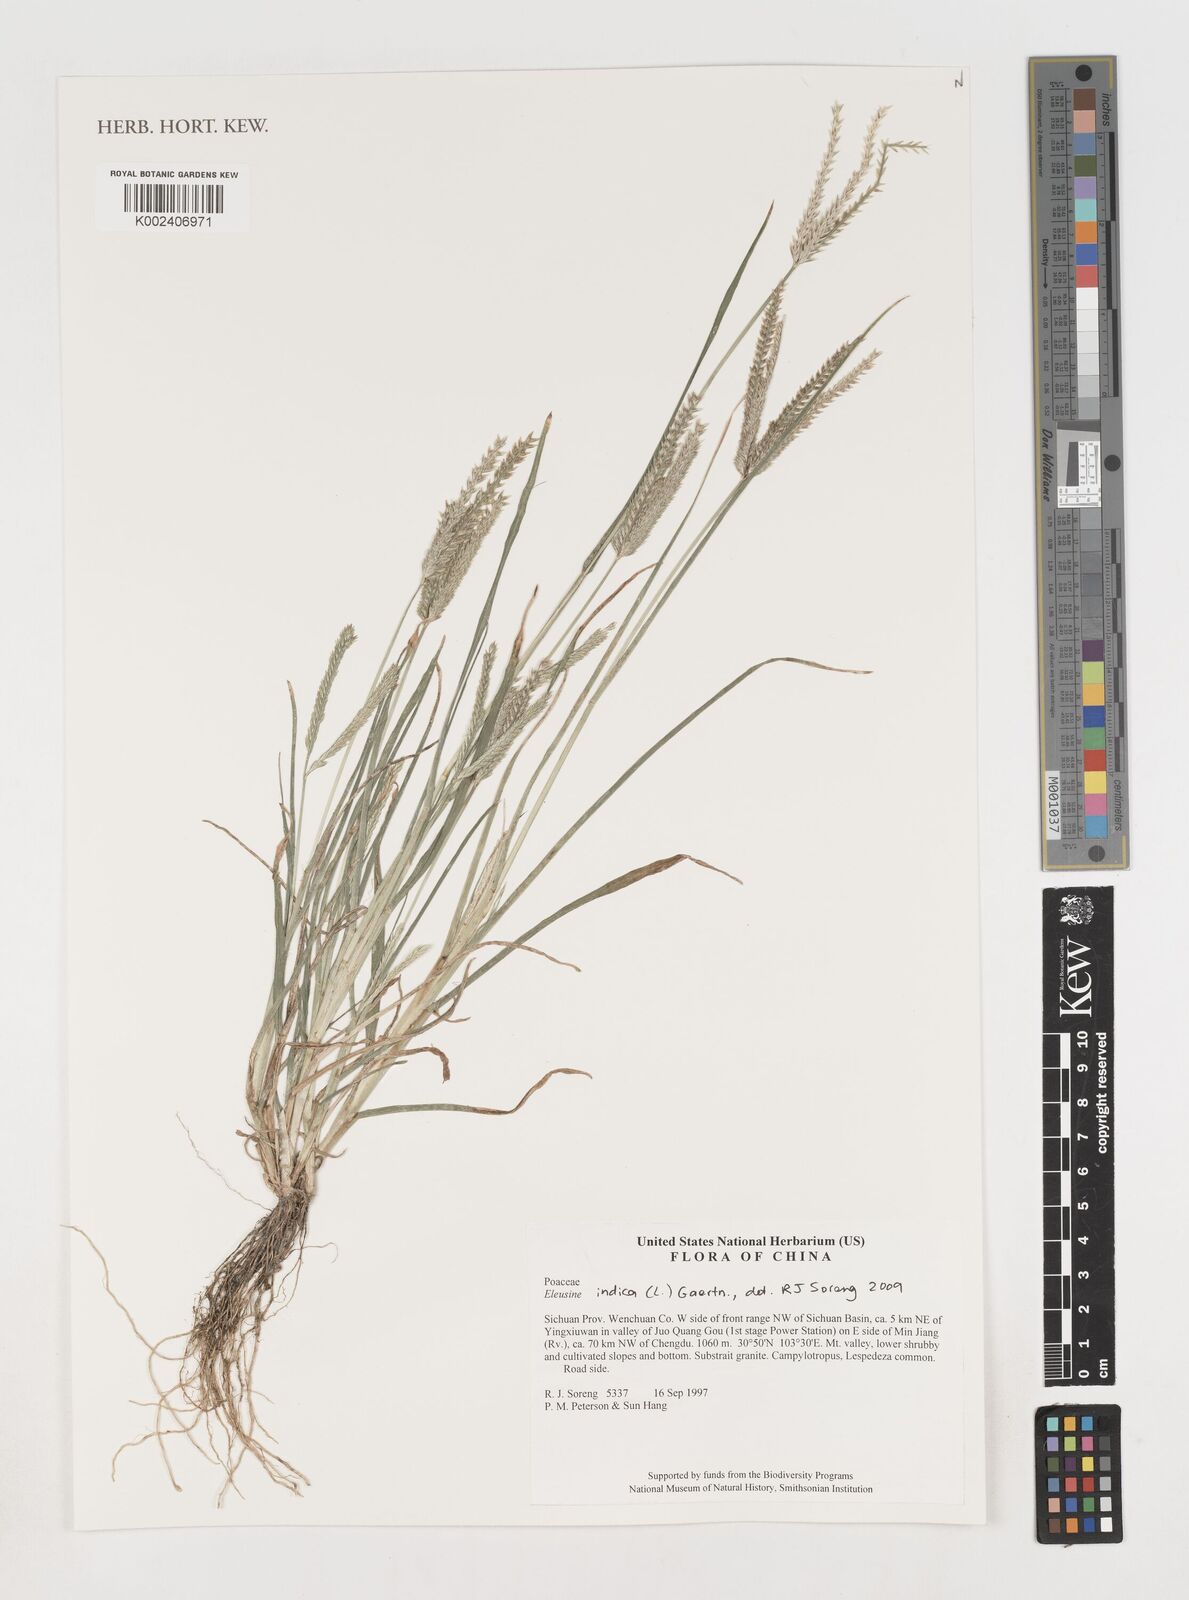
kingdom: Plantae
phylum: Tracheophyta
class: Liliopsida
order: Poales
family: Poaceae
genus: Eleusine
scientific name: Eleusine indica
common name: Yard-grass
